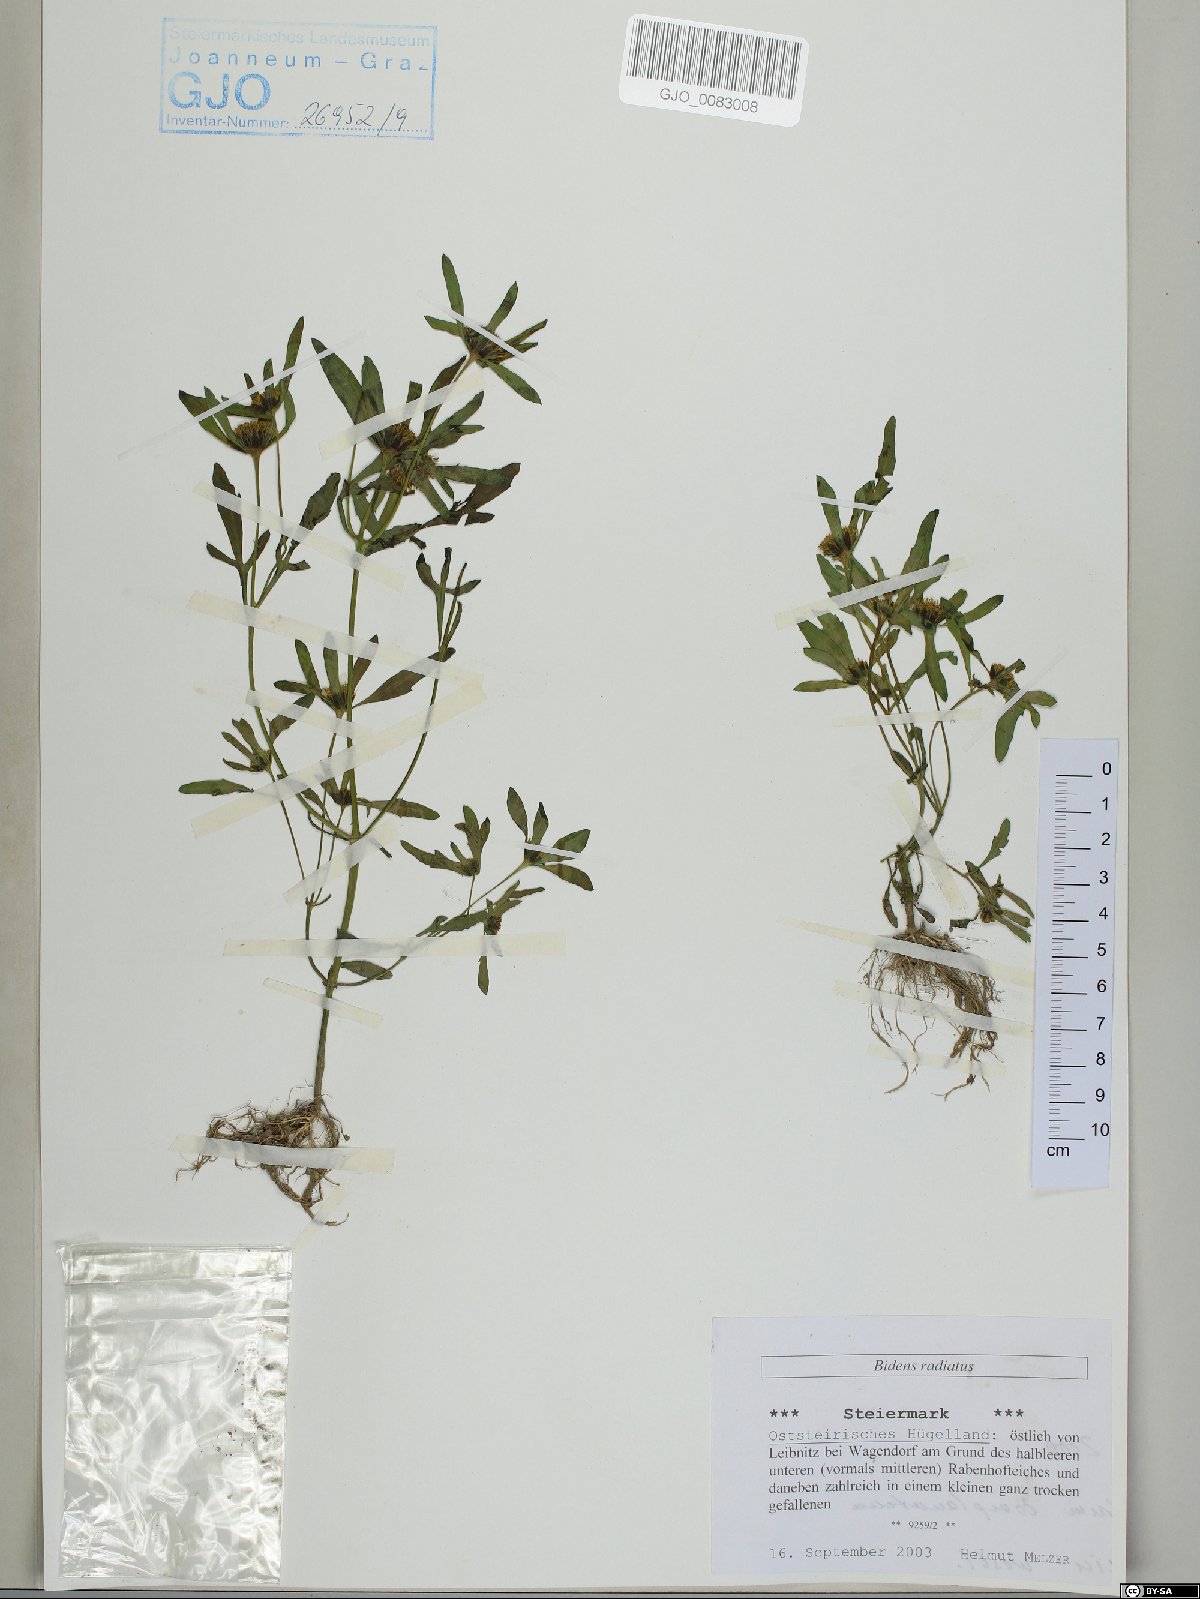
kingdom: Plantae
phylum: Tracheophyta
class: Magnoliopsida
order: Asterales
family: Asteraceae
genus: Bidens
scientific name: Bidens radiata
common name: Radiating bur-marigold
